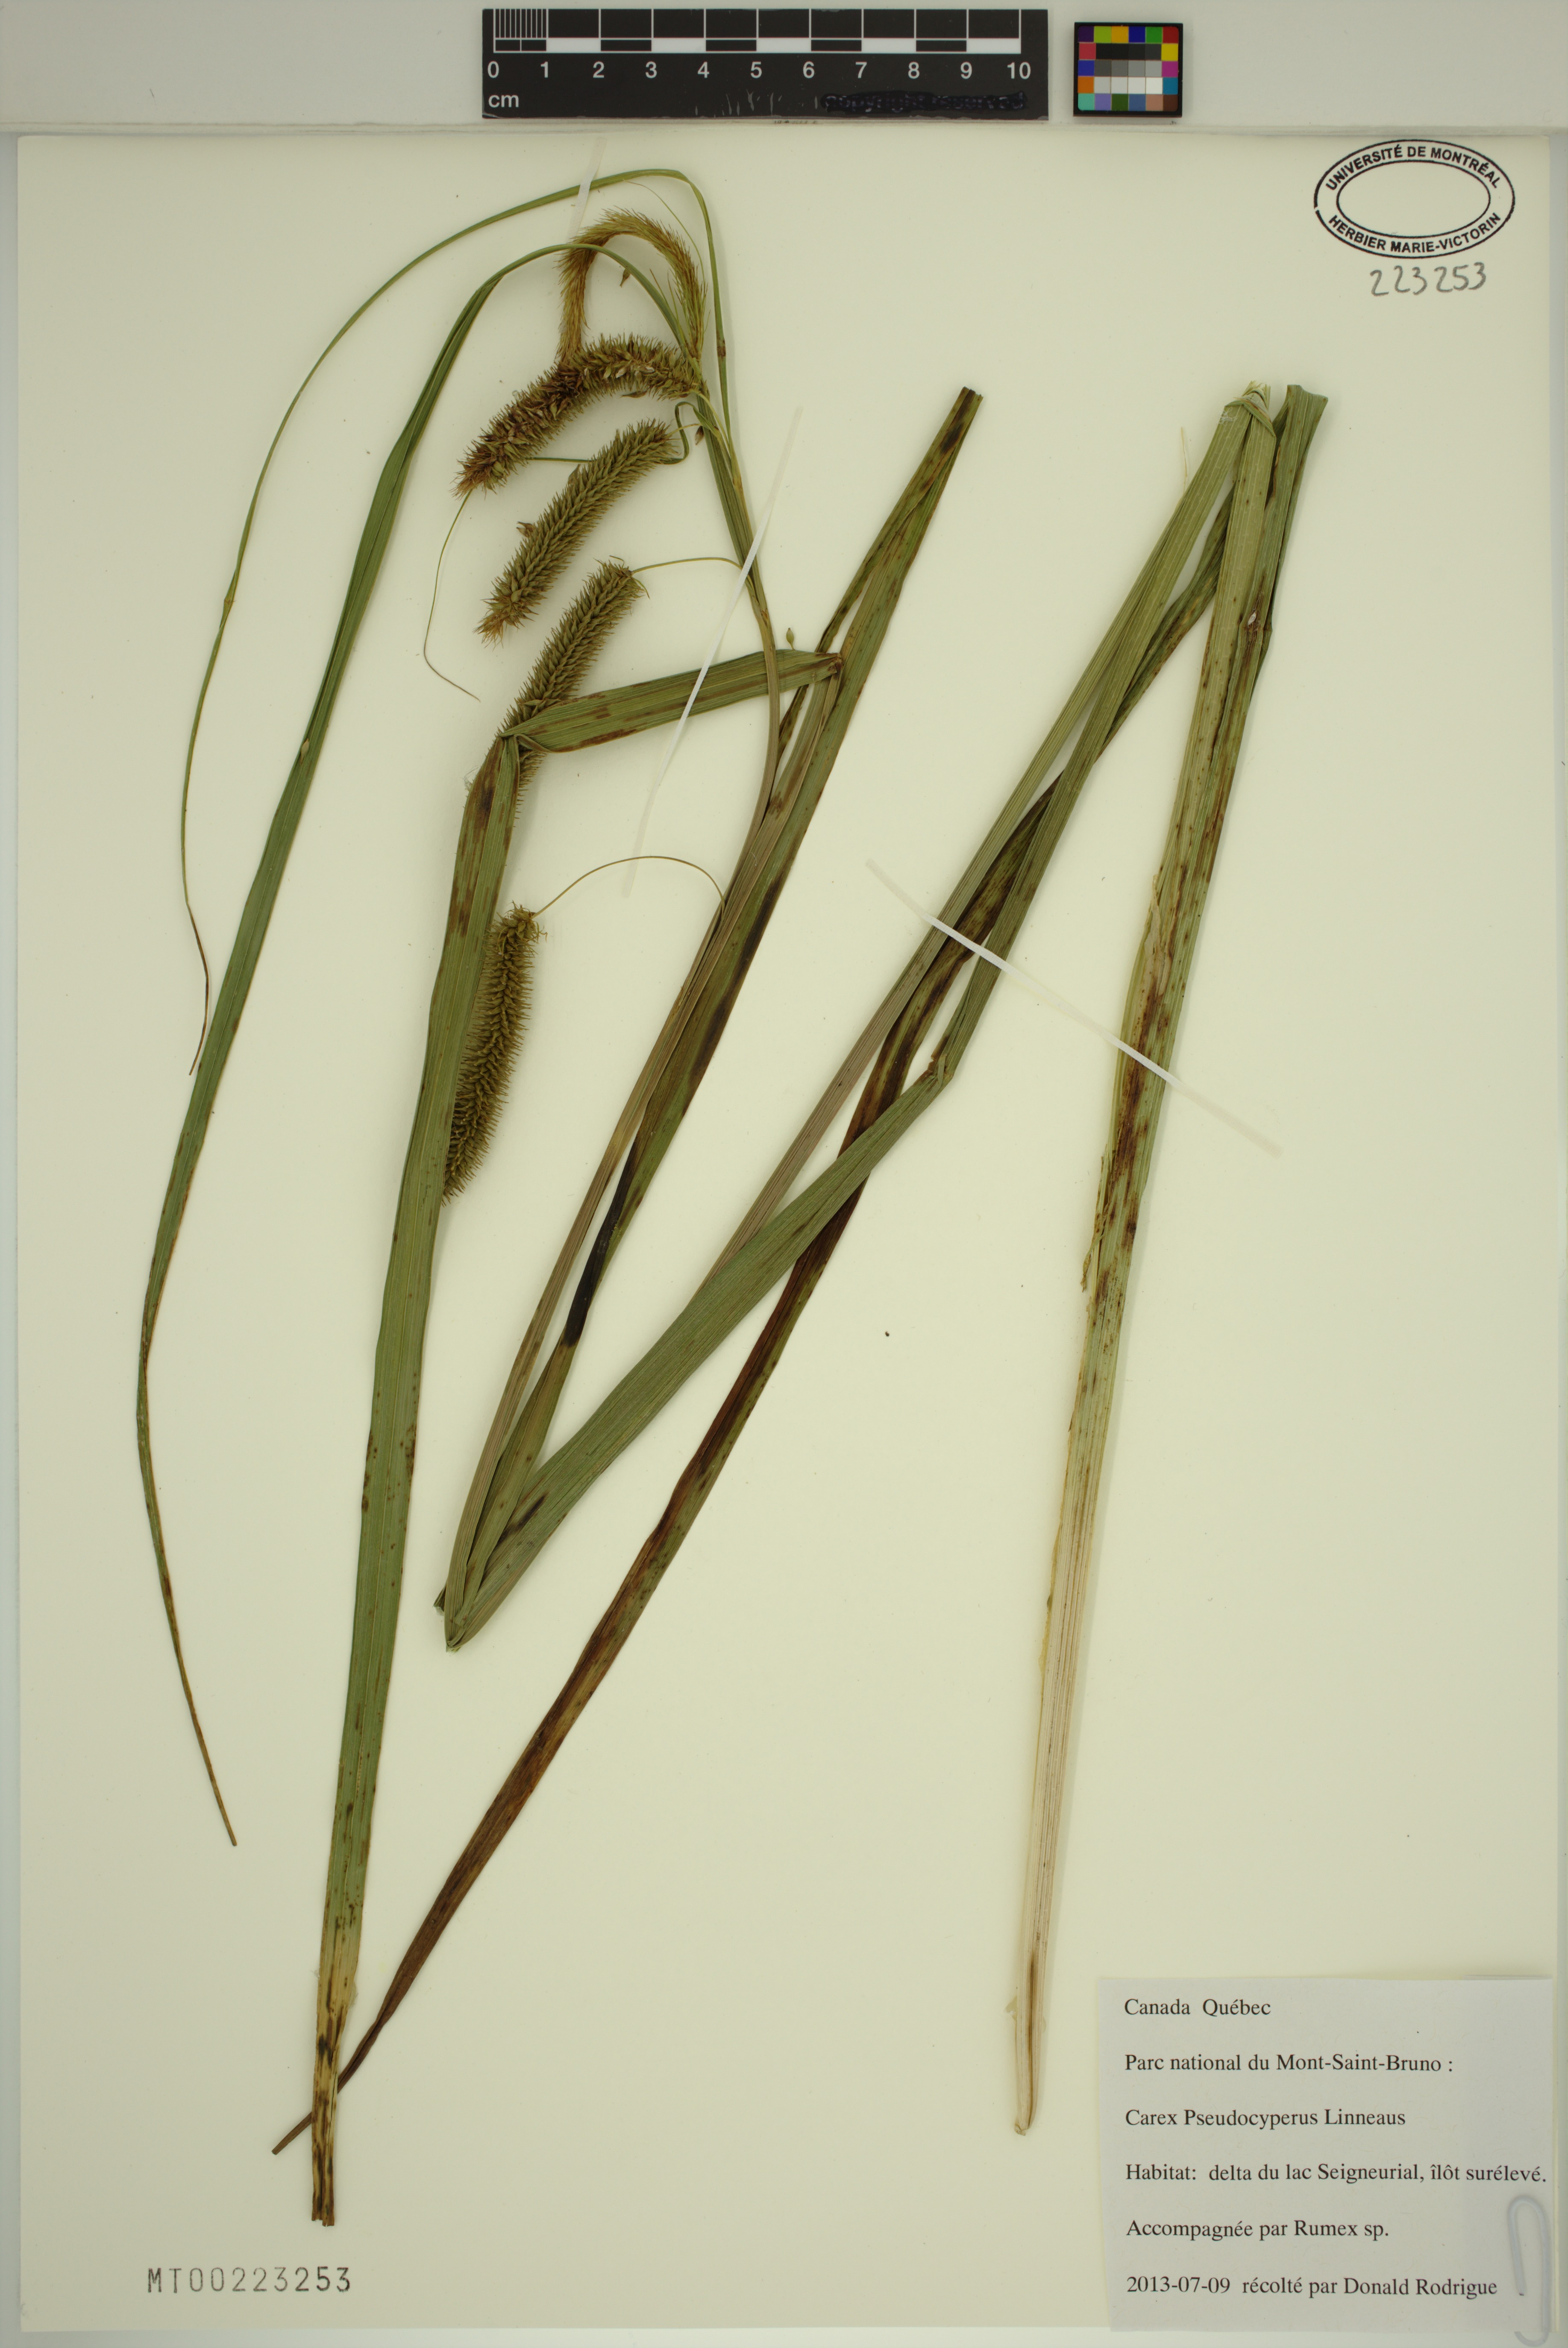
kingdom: Plantae
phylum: Tracheophyta
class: Liliopsida
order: Poales
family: Cyperaceae
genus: Carex
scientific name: Carex pseudocyperus
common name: Cyperus sedge
